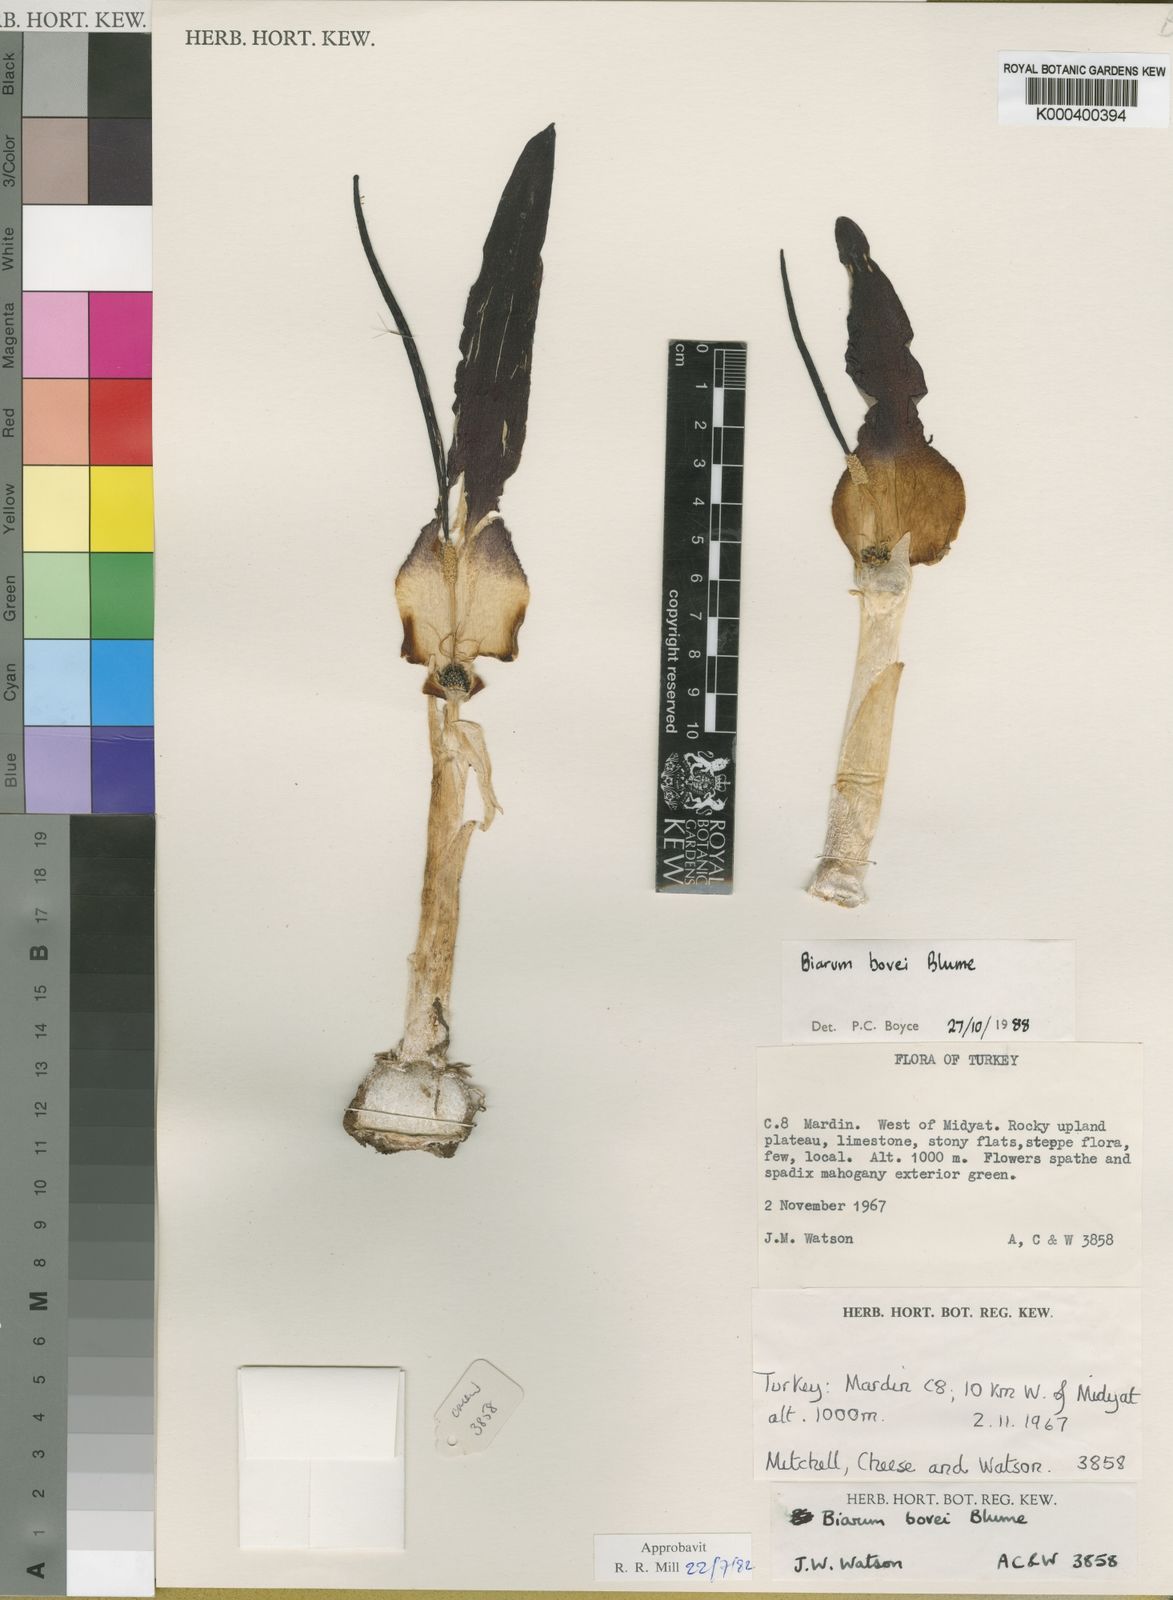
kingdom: Plantae
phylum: Tracheophyta
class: Liliopsida
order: Alismatales
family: Araceae
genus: Biarum
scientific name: Biarum bovei
